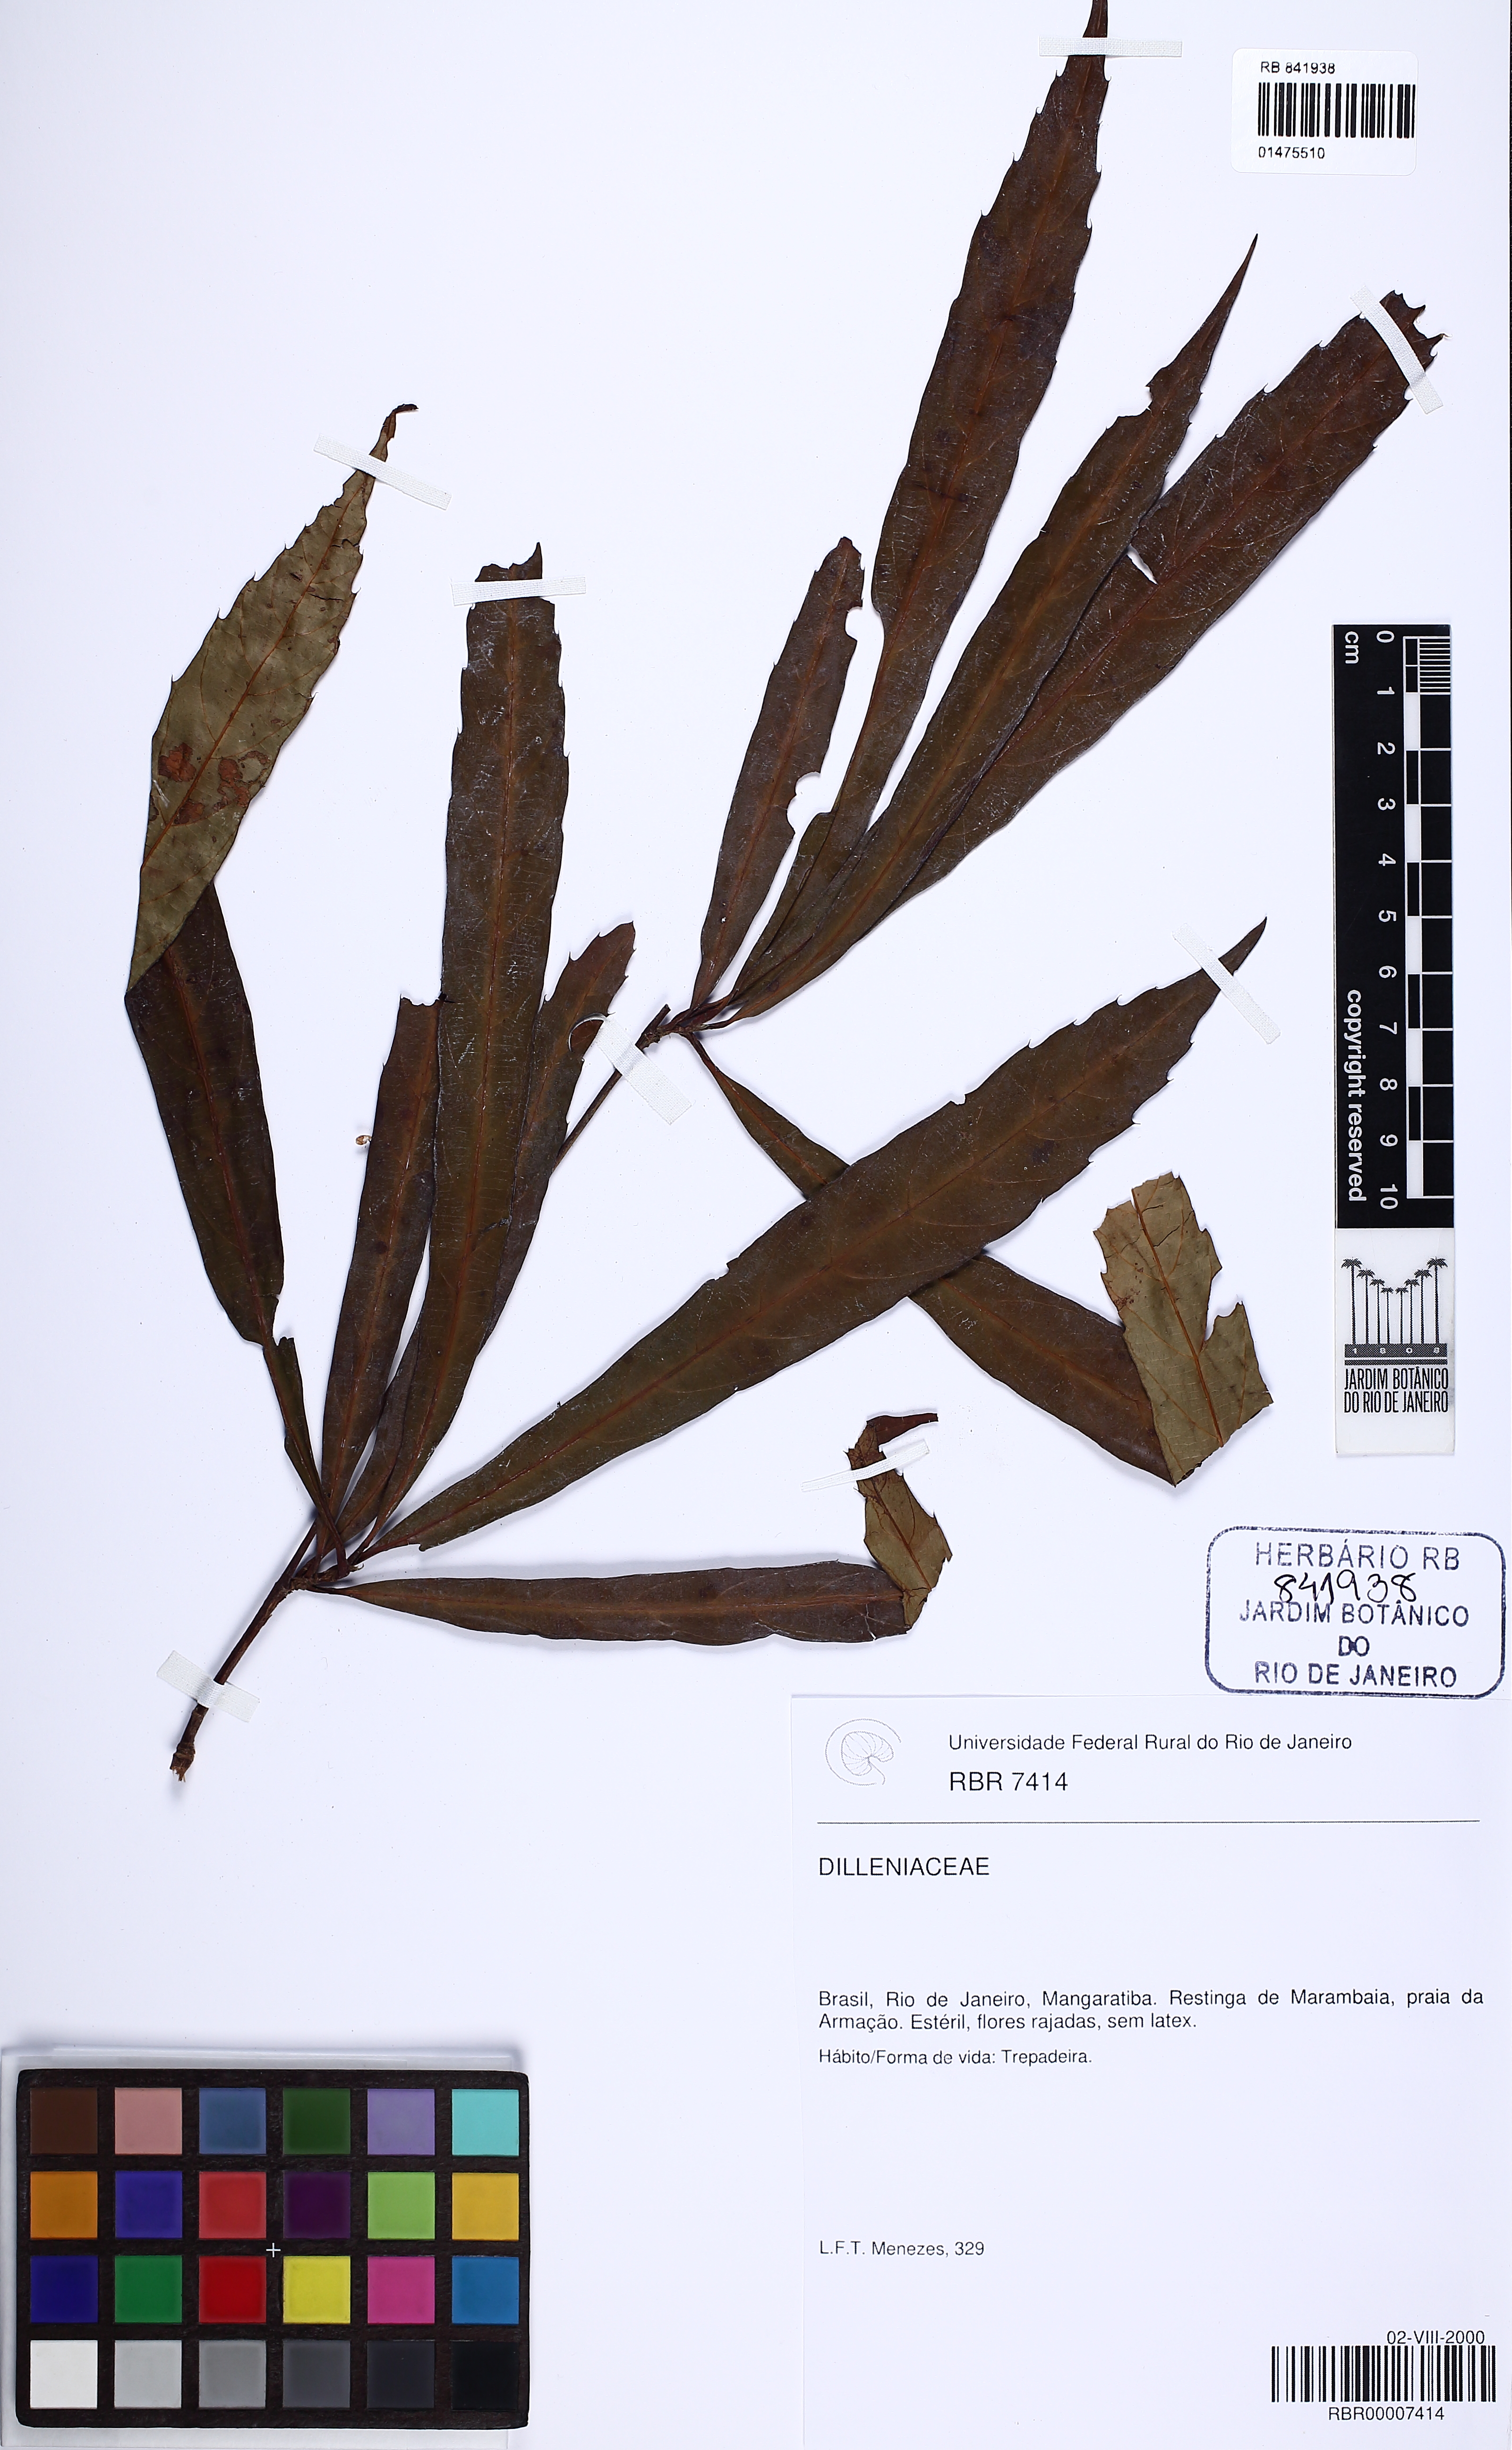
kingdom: Plantae
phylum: Tracheophyta
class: Magnoliopsida
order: Dilleniales
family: Dilleniaceae
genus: Doliocarpus
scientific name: Doliocarpus heterophyllus
